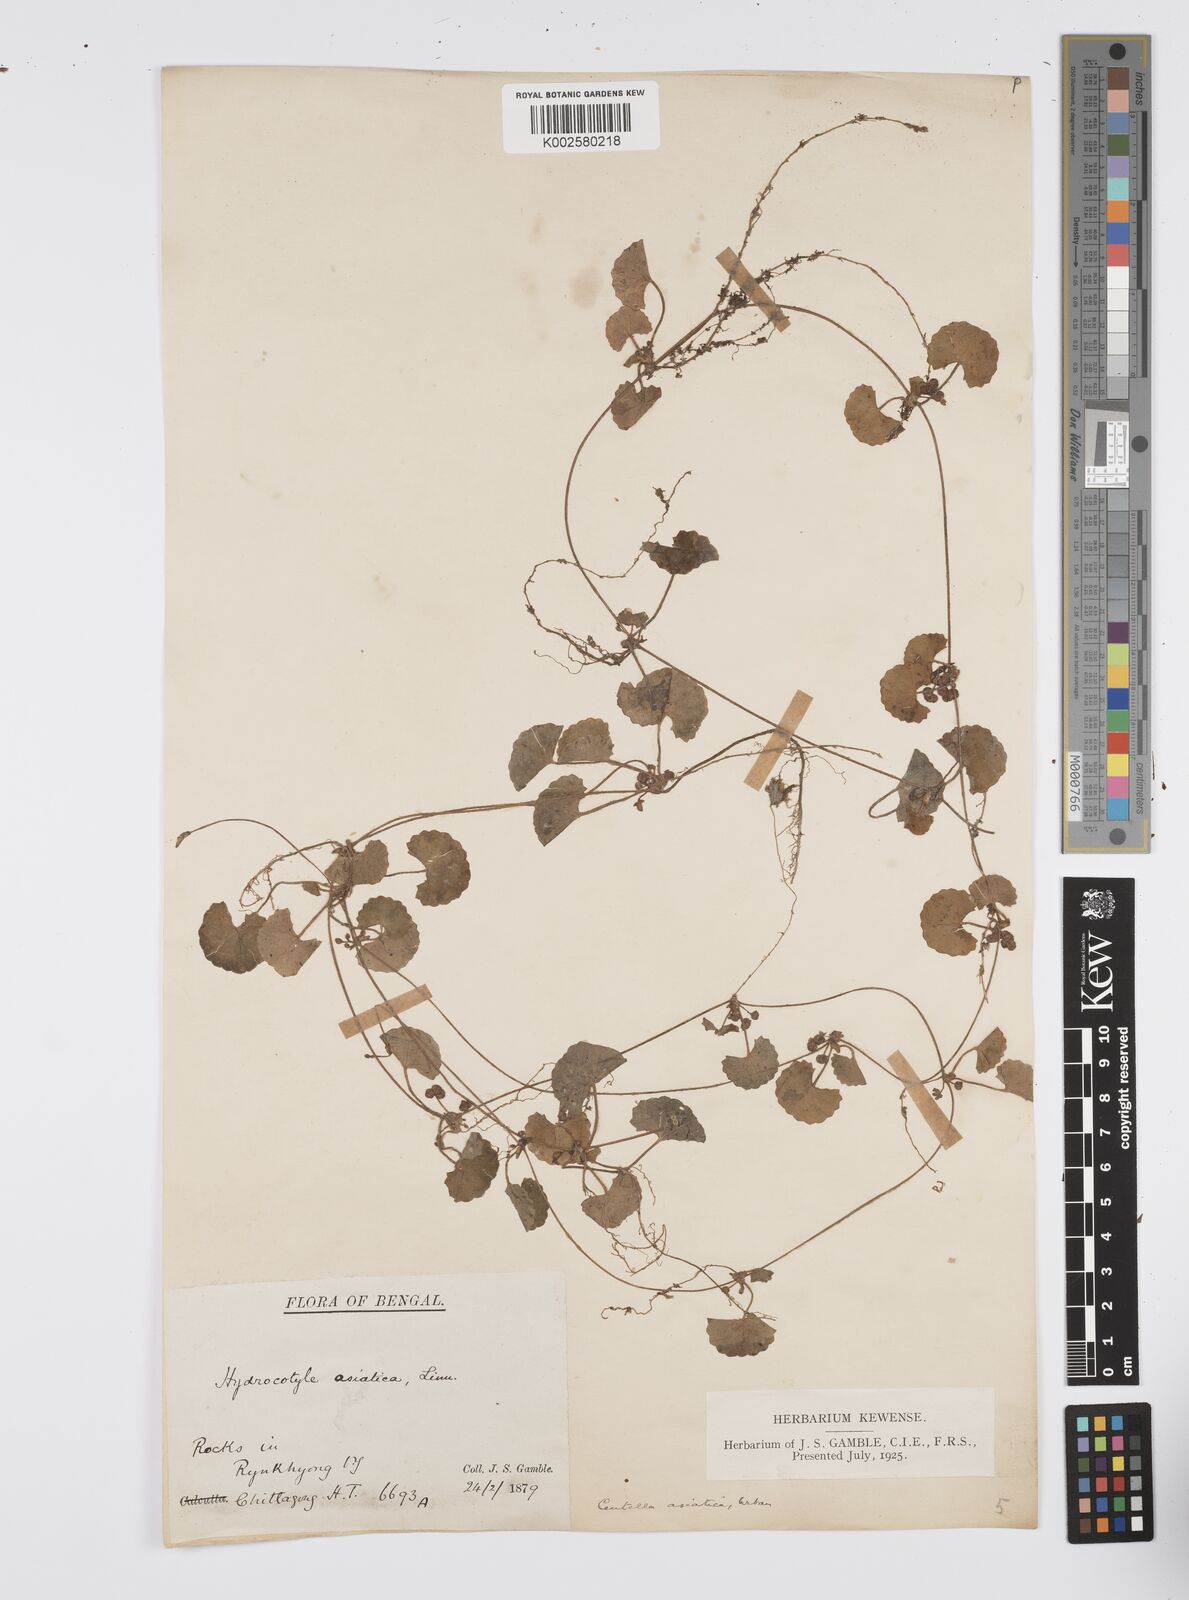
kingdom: Plantae
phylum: Tracheophyta
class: Magnoliopsida
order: Apiales
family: Apiaceae
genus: Centella
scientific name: Centella asiatica
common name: Spadeleaf
